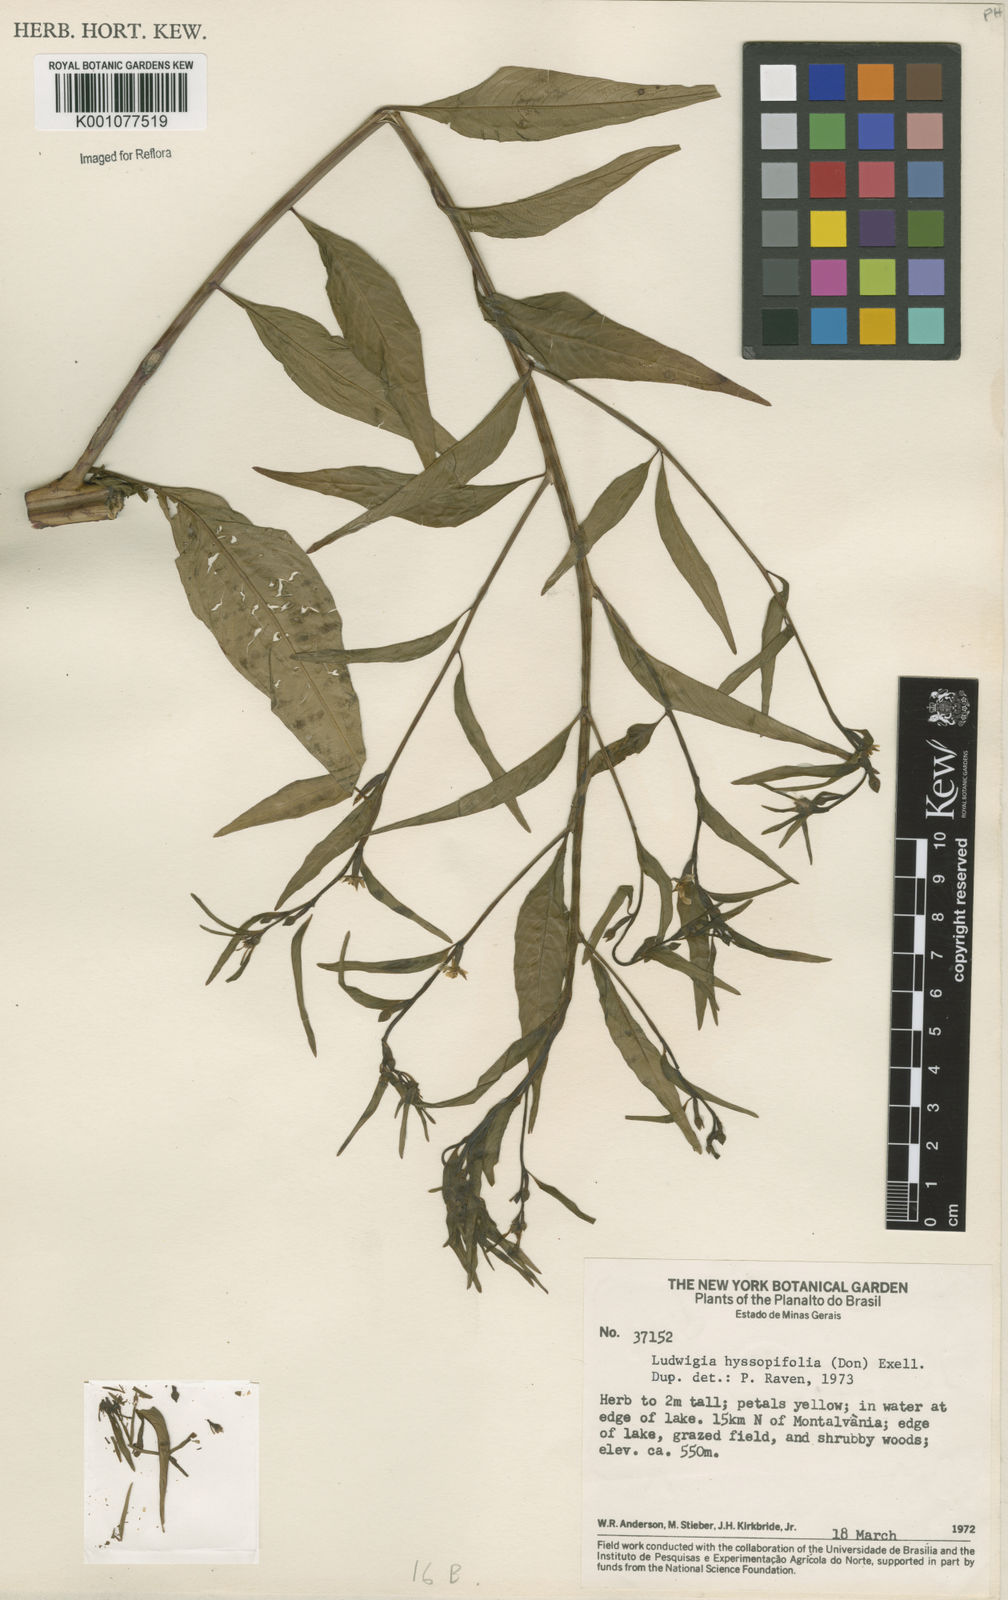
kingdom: Plantae
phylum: Tracheophyta
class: Magnoliopsida
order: Myrtales
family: Onagraceae
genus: Ludwigia
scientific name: Ludwigia hyssopifolia
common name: Linear leaf water primrose
